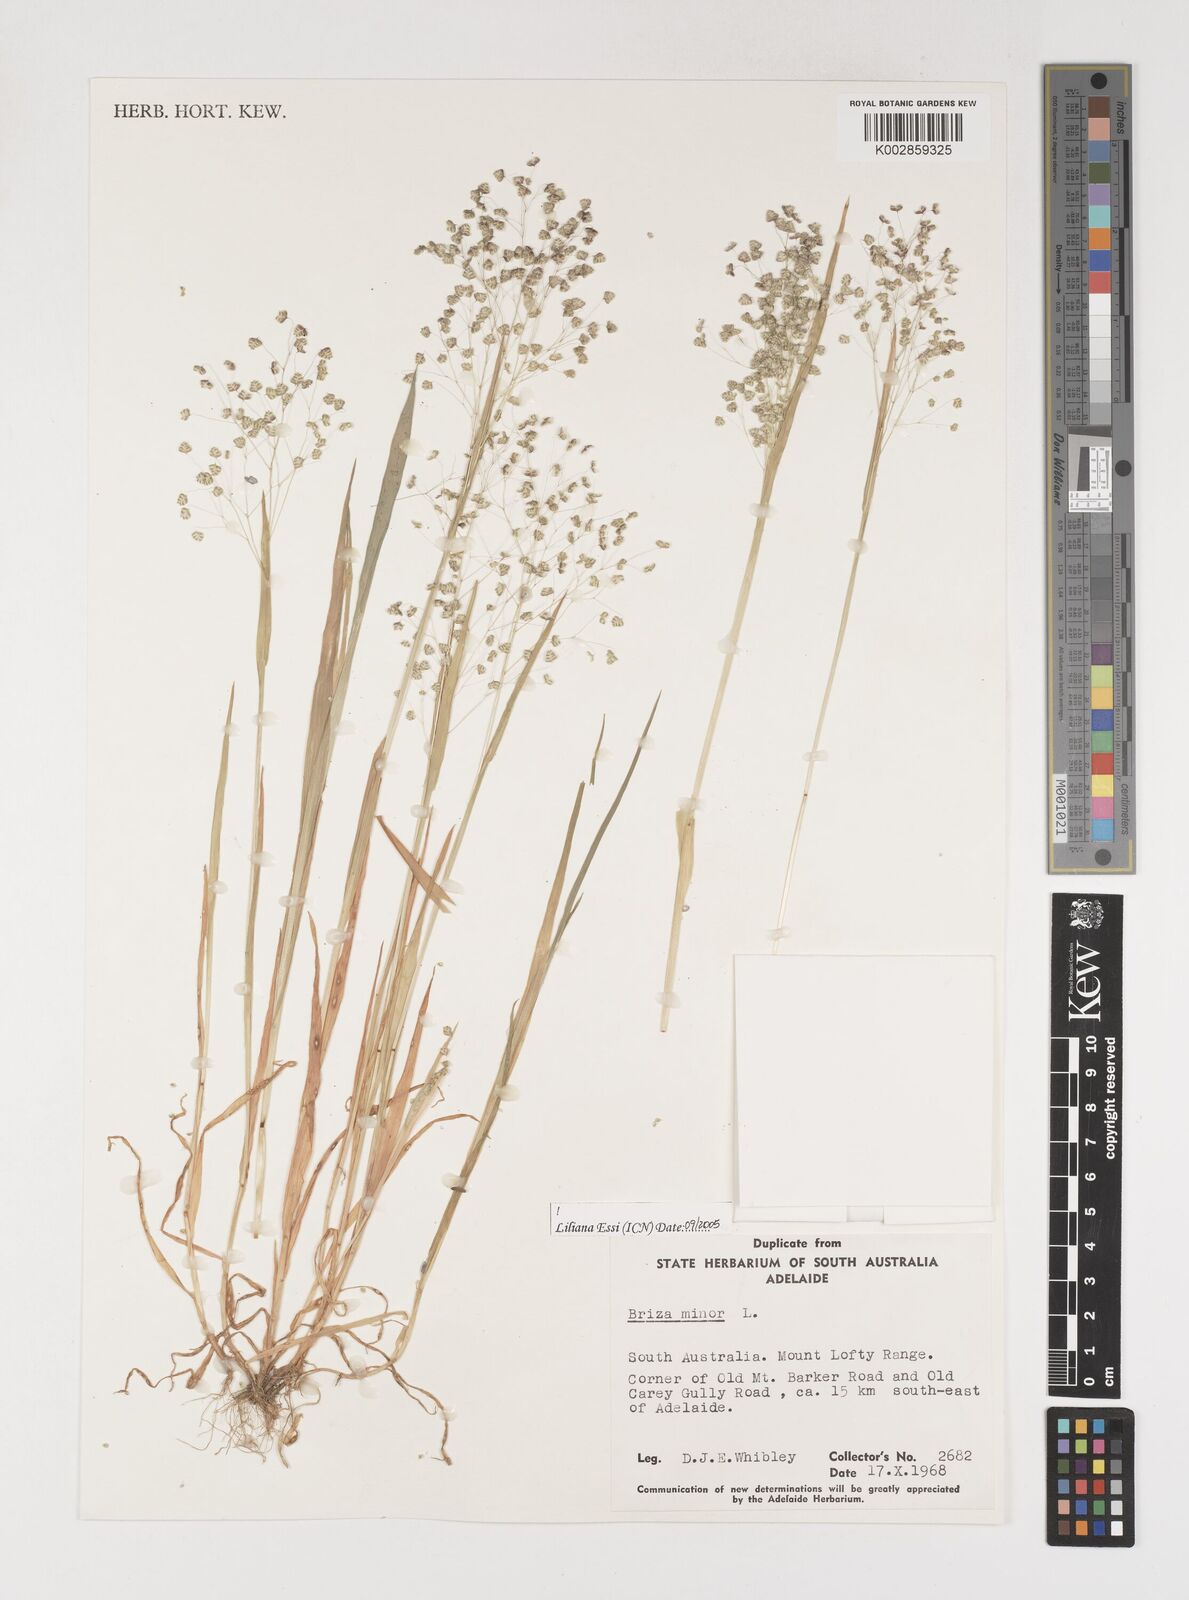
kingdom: Plantae
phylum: Tracheophyta
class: Liliopsida
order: Poales
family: Poaceae
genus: Briza
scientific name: Briza minor
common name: Lesser quaking-grass
